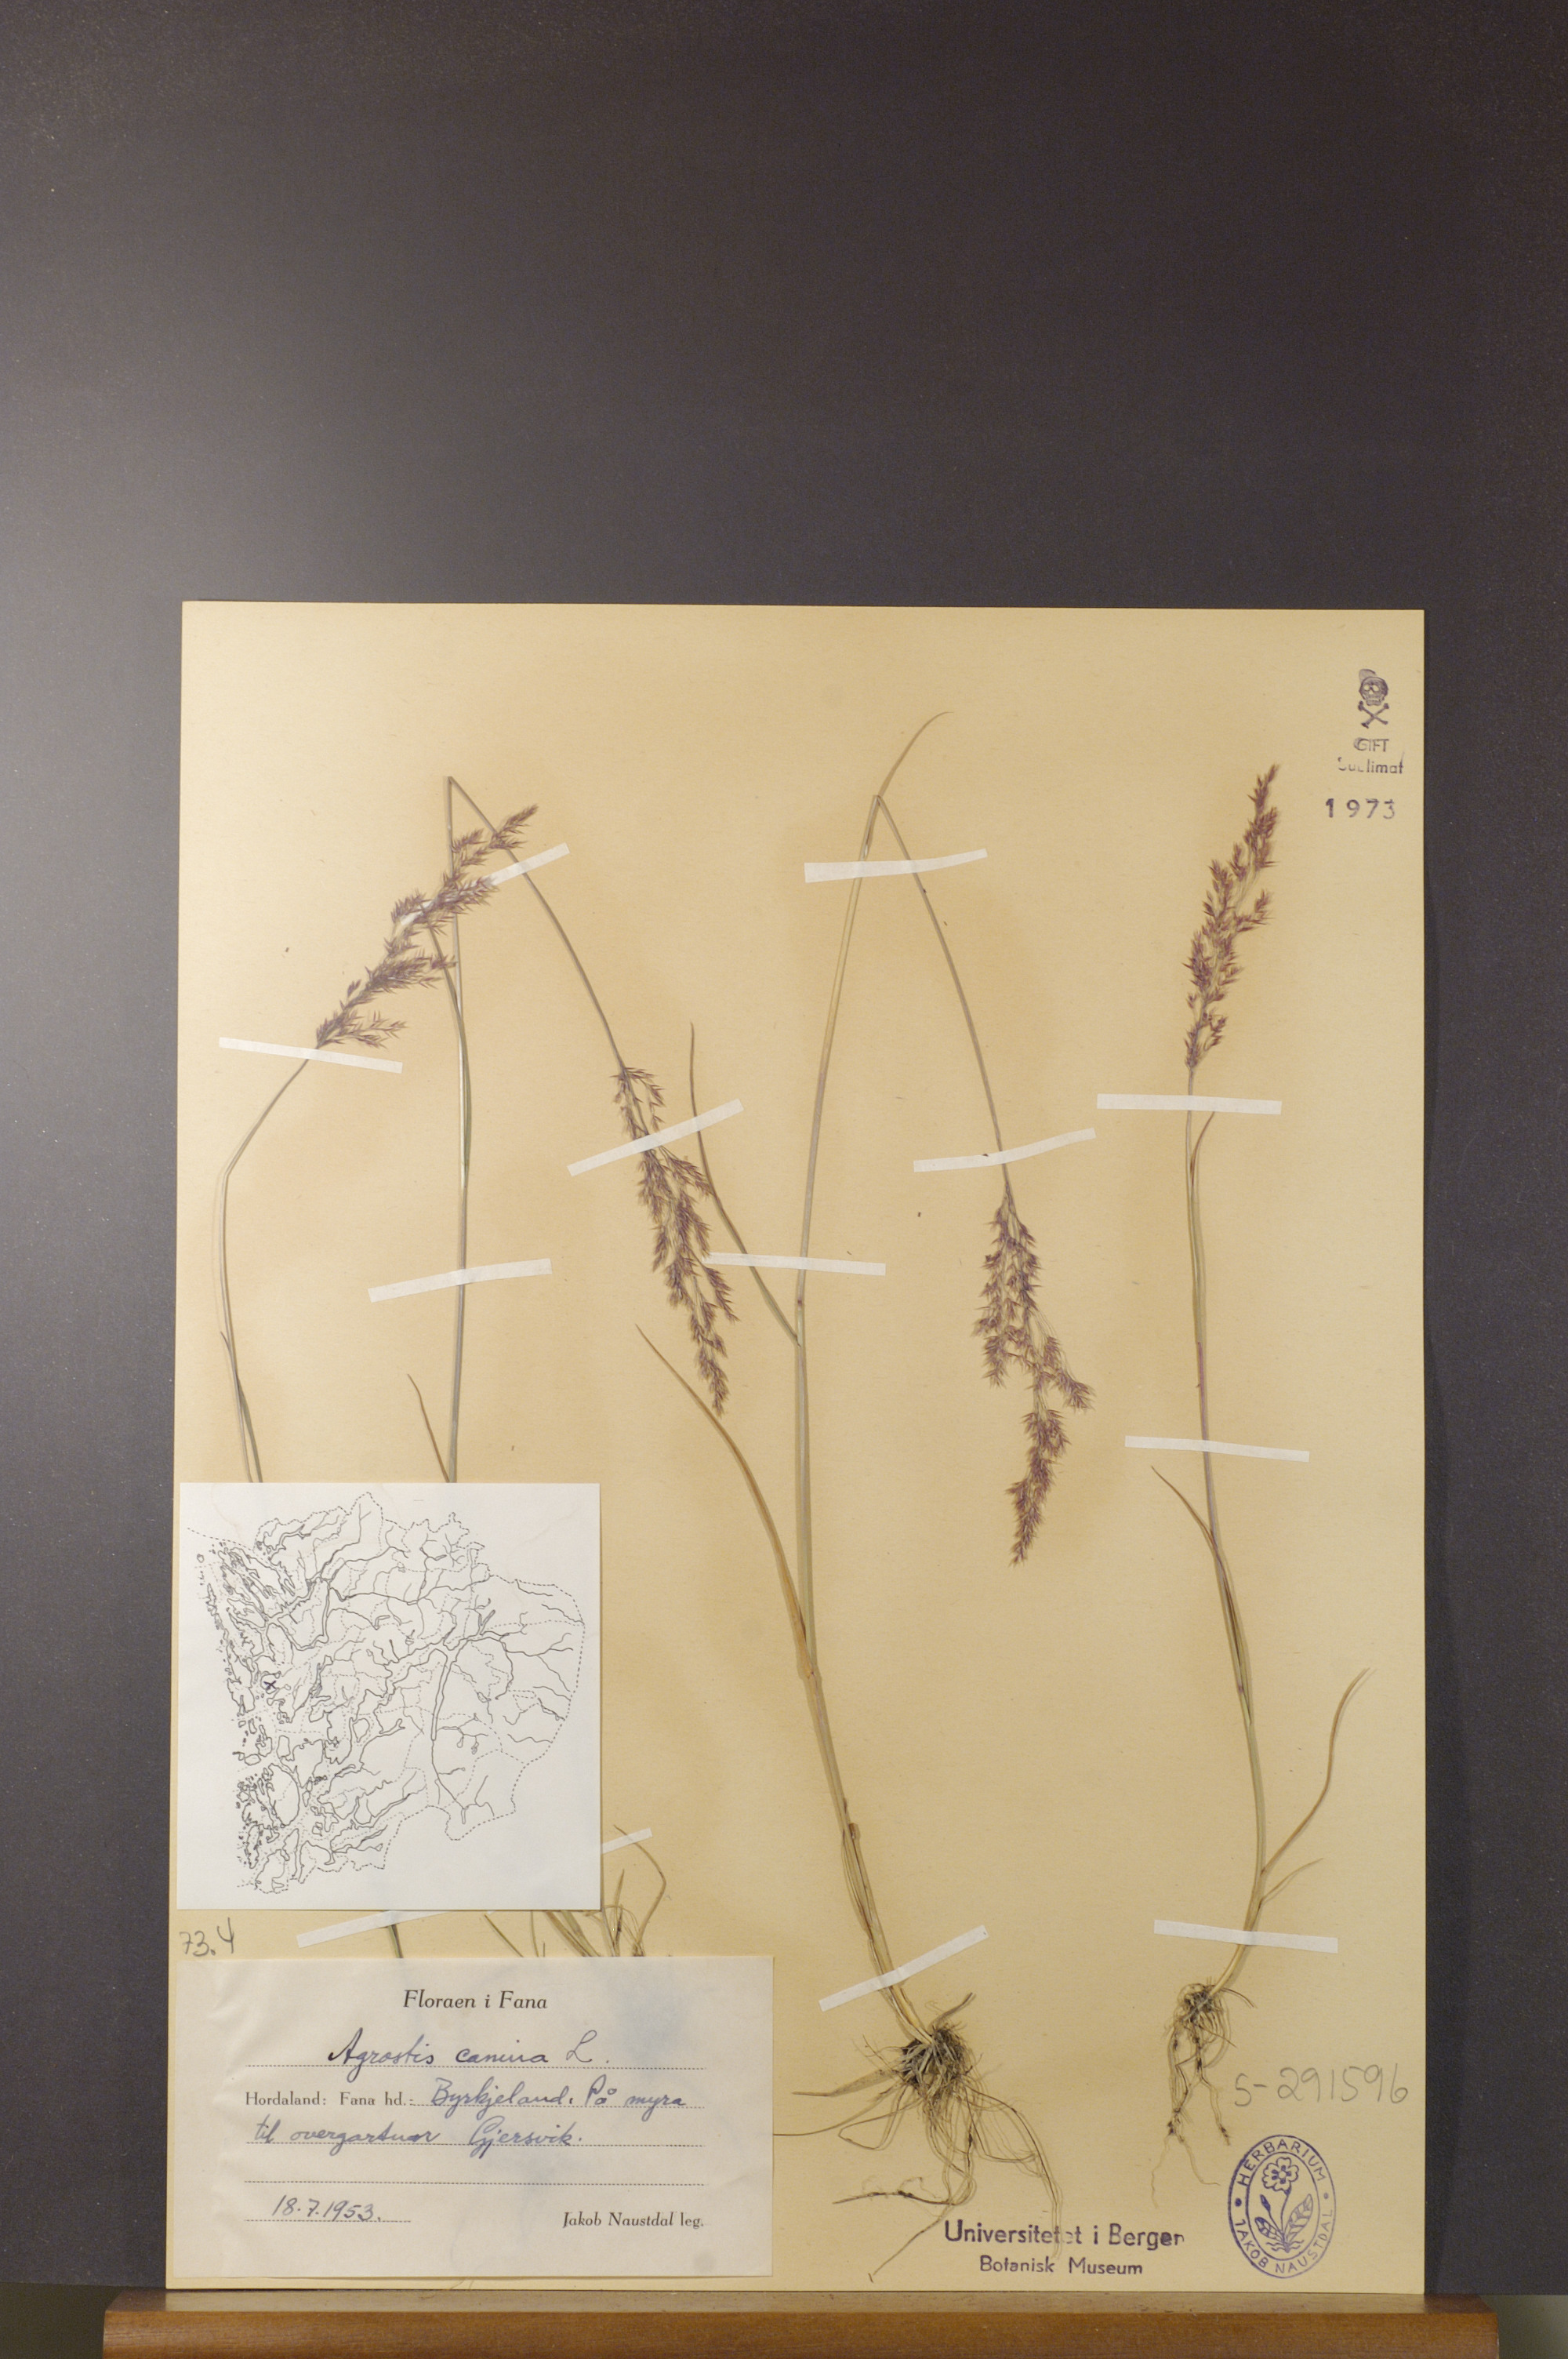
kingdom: Plantae
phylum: Tracheophyta
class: Liliopsida
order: Poales
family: Poaceae
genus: Agrostis
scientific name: Agrostis canina
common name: Velvet bent
